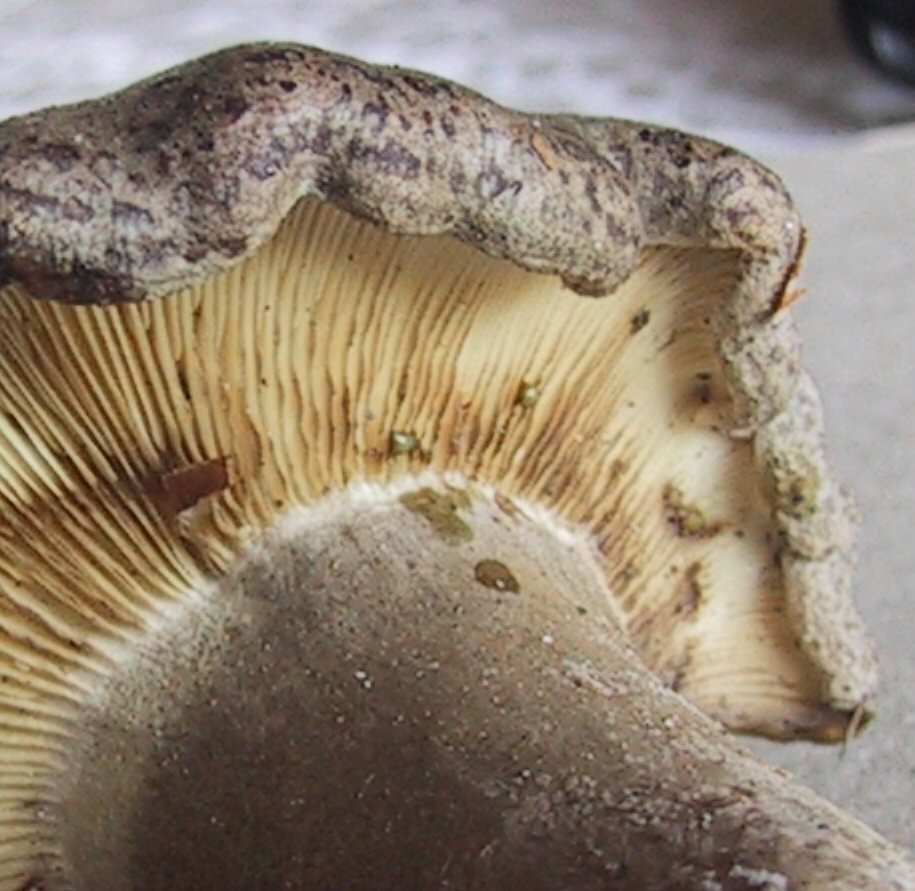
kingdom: Fungi
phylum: Basidiomycota
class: Agaricomycetes
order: Russulales
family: Russulaceae
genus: Lactarius
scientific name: Lactarius trivialis
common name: nordisk mælkehat
